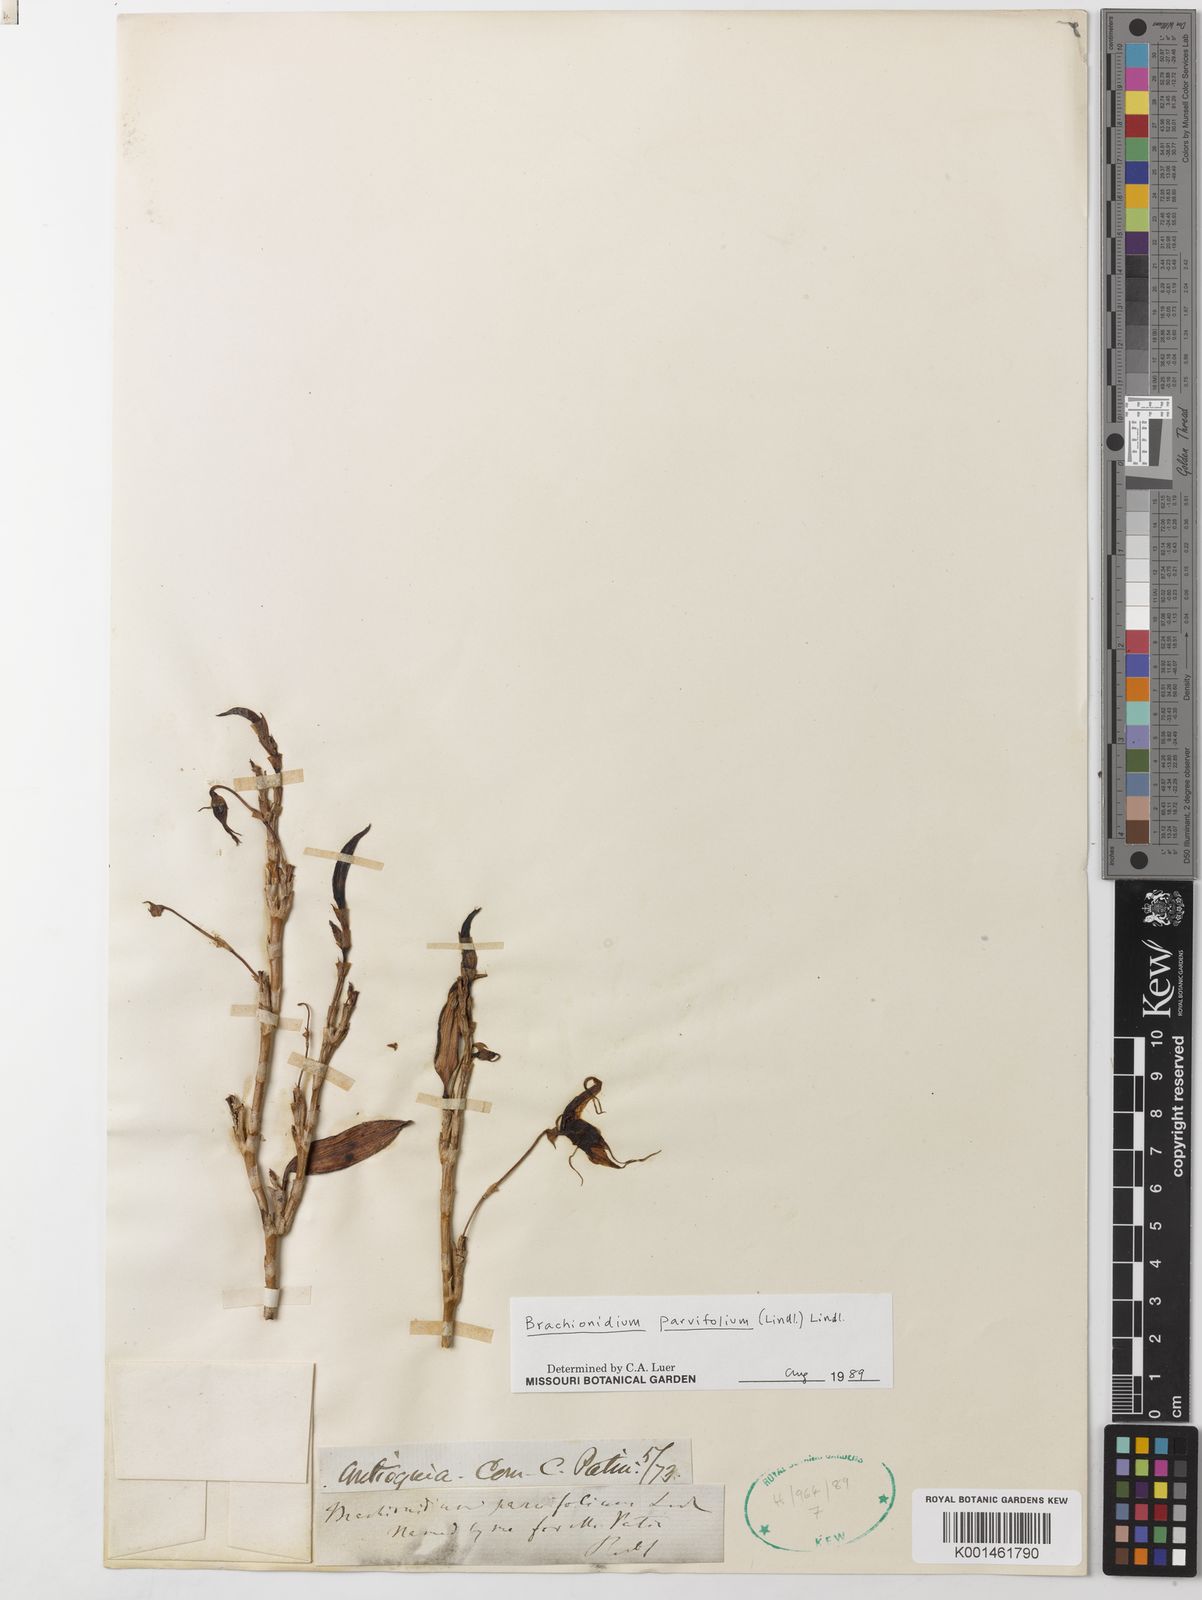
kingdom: Plantae
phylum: Tracheophyta
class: Liliopsida
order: Asparagales
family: Orchidaceae
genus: Brachionidium
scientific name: Brachionidium parvifolium
